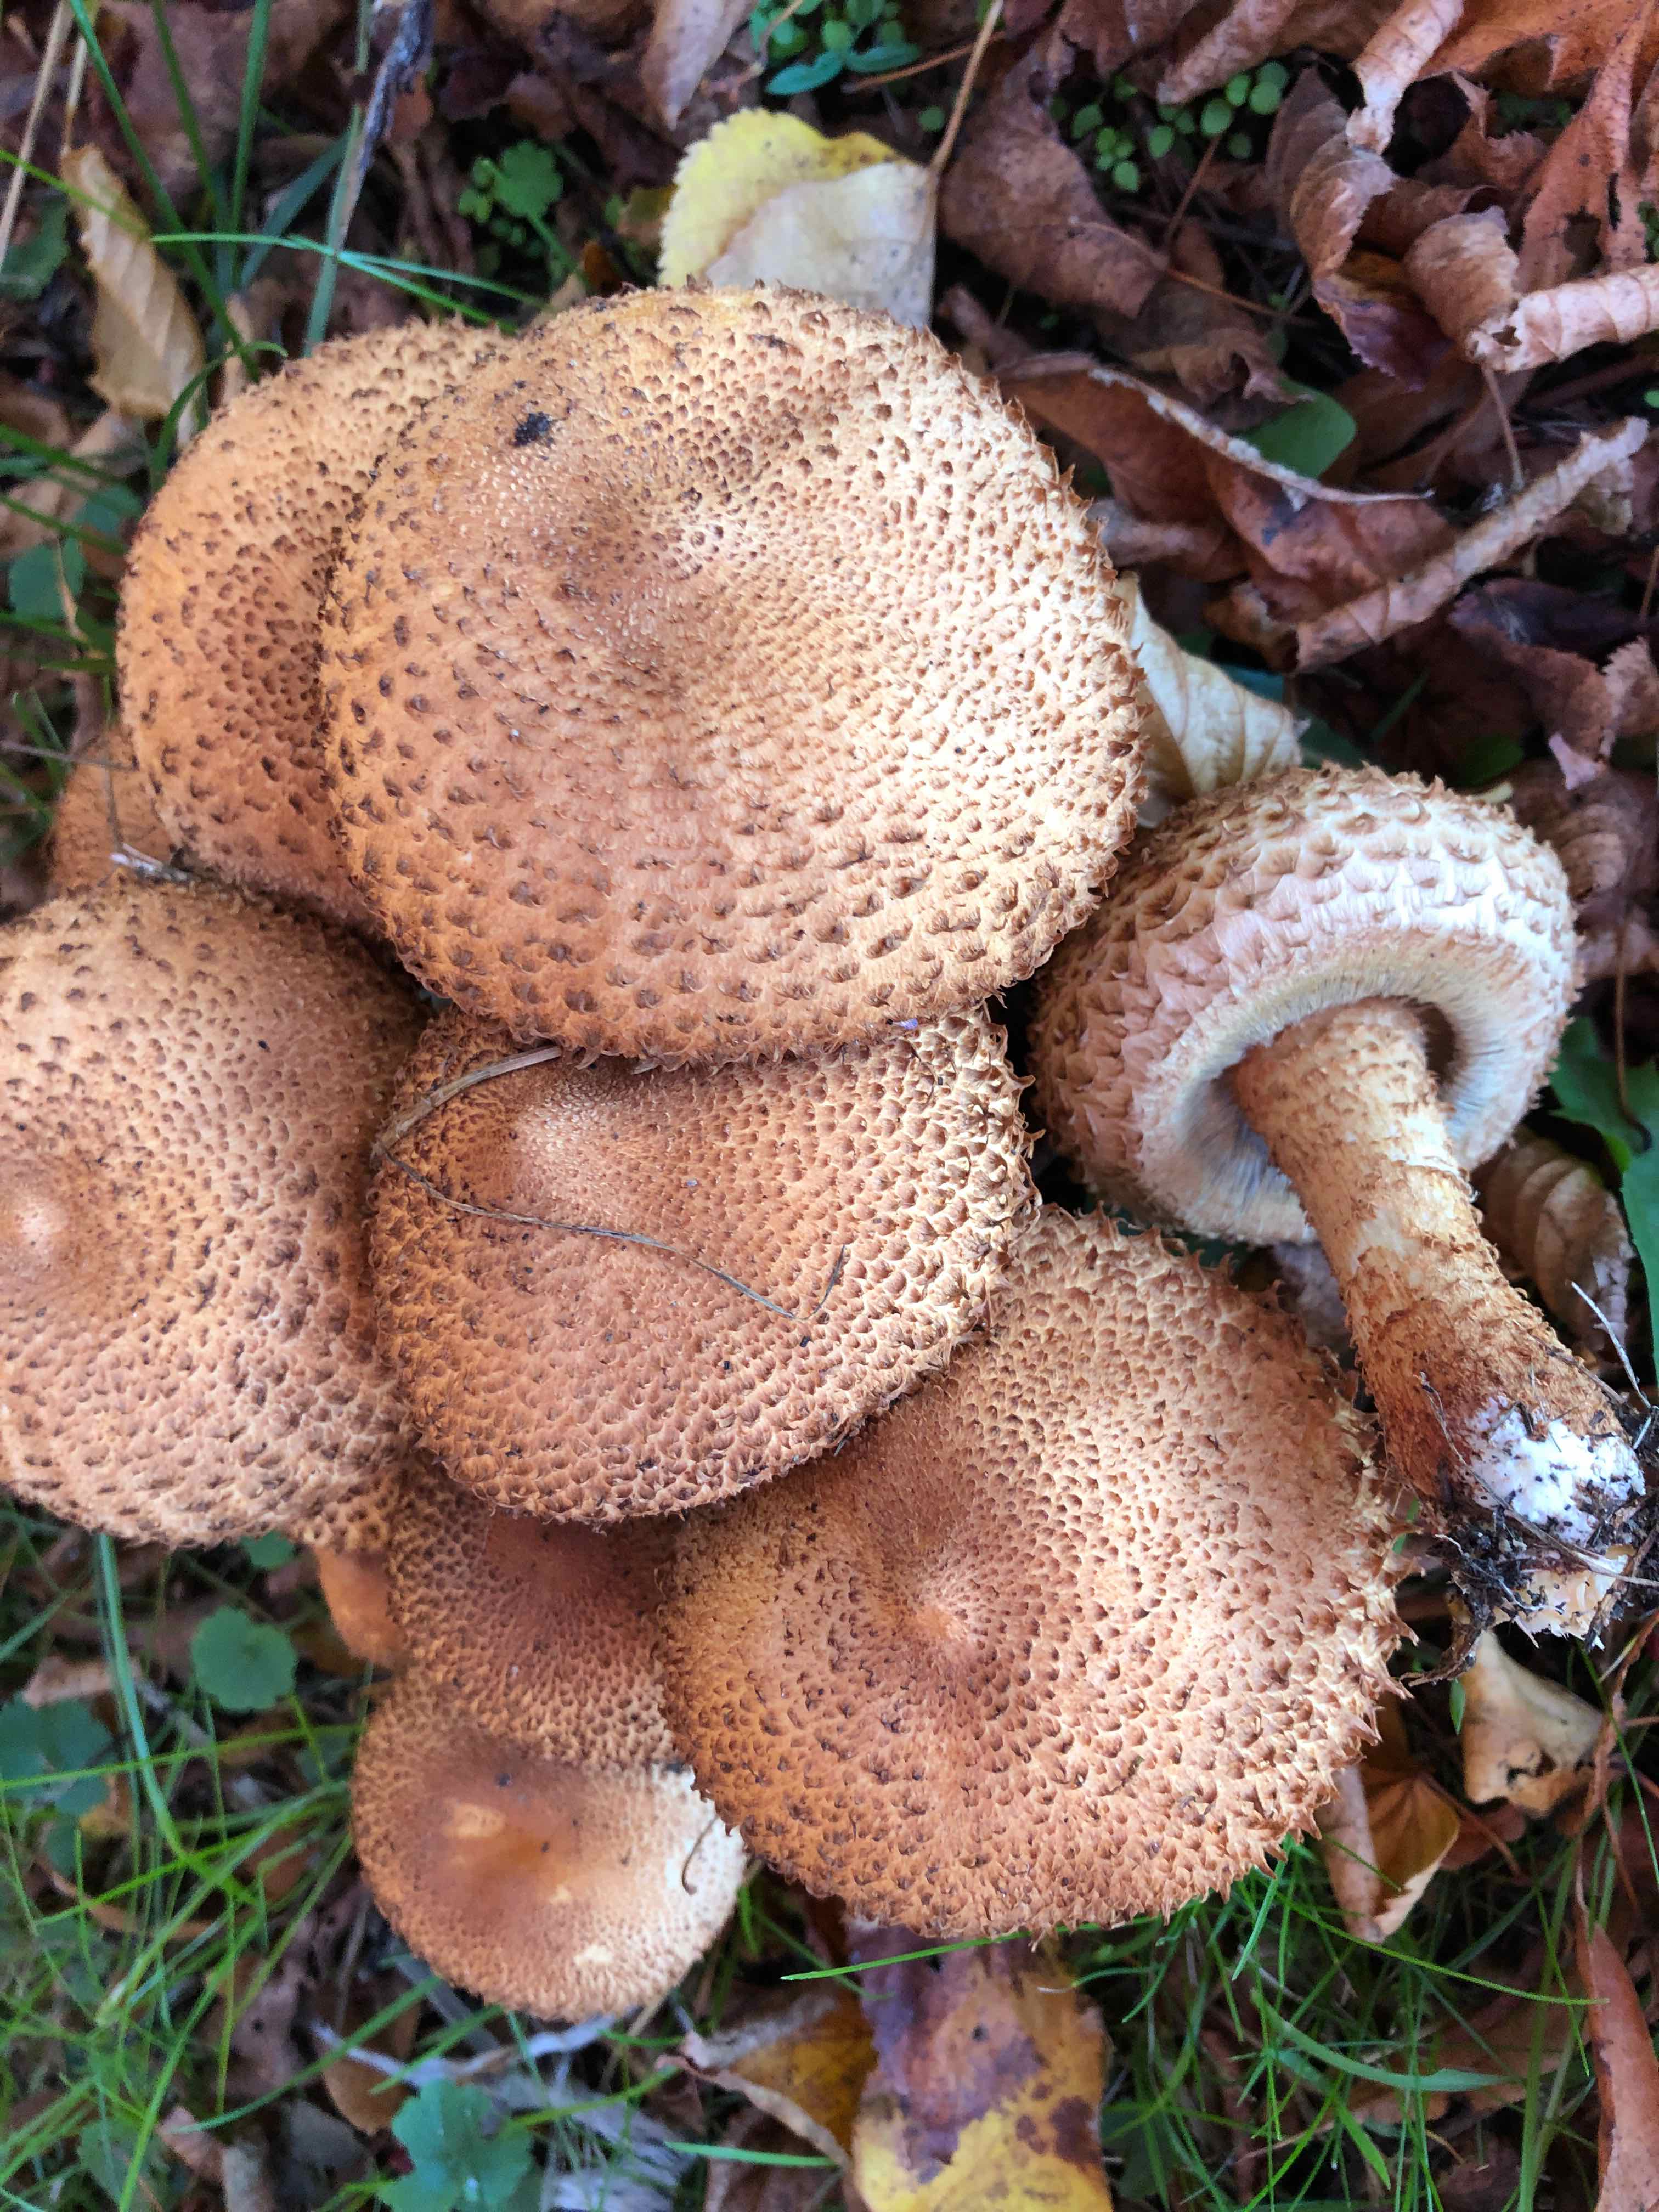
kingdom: Fungi
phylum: Basidiomycota
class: Agaricomycetes
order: Agaricales
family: Strophariaceae
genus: Pholiota
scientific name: Pholiota squarrosa
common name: krumskællet skælhat
